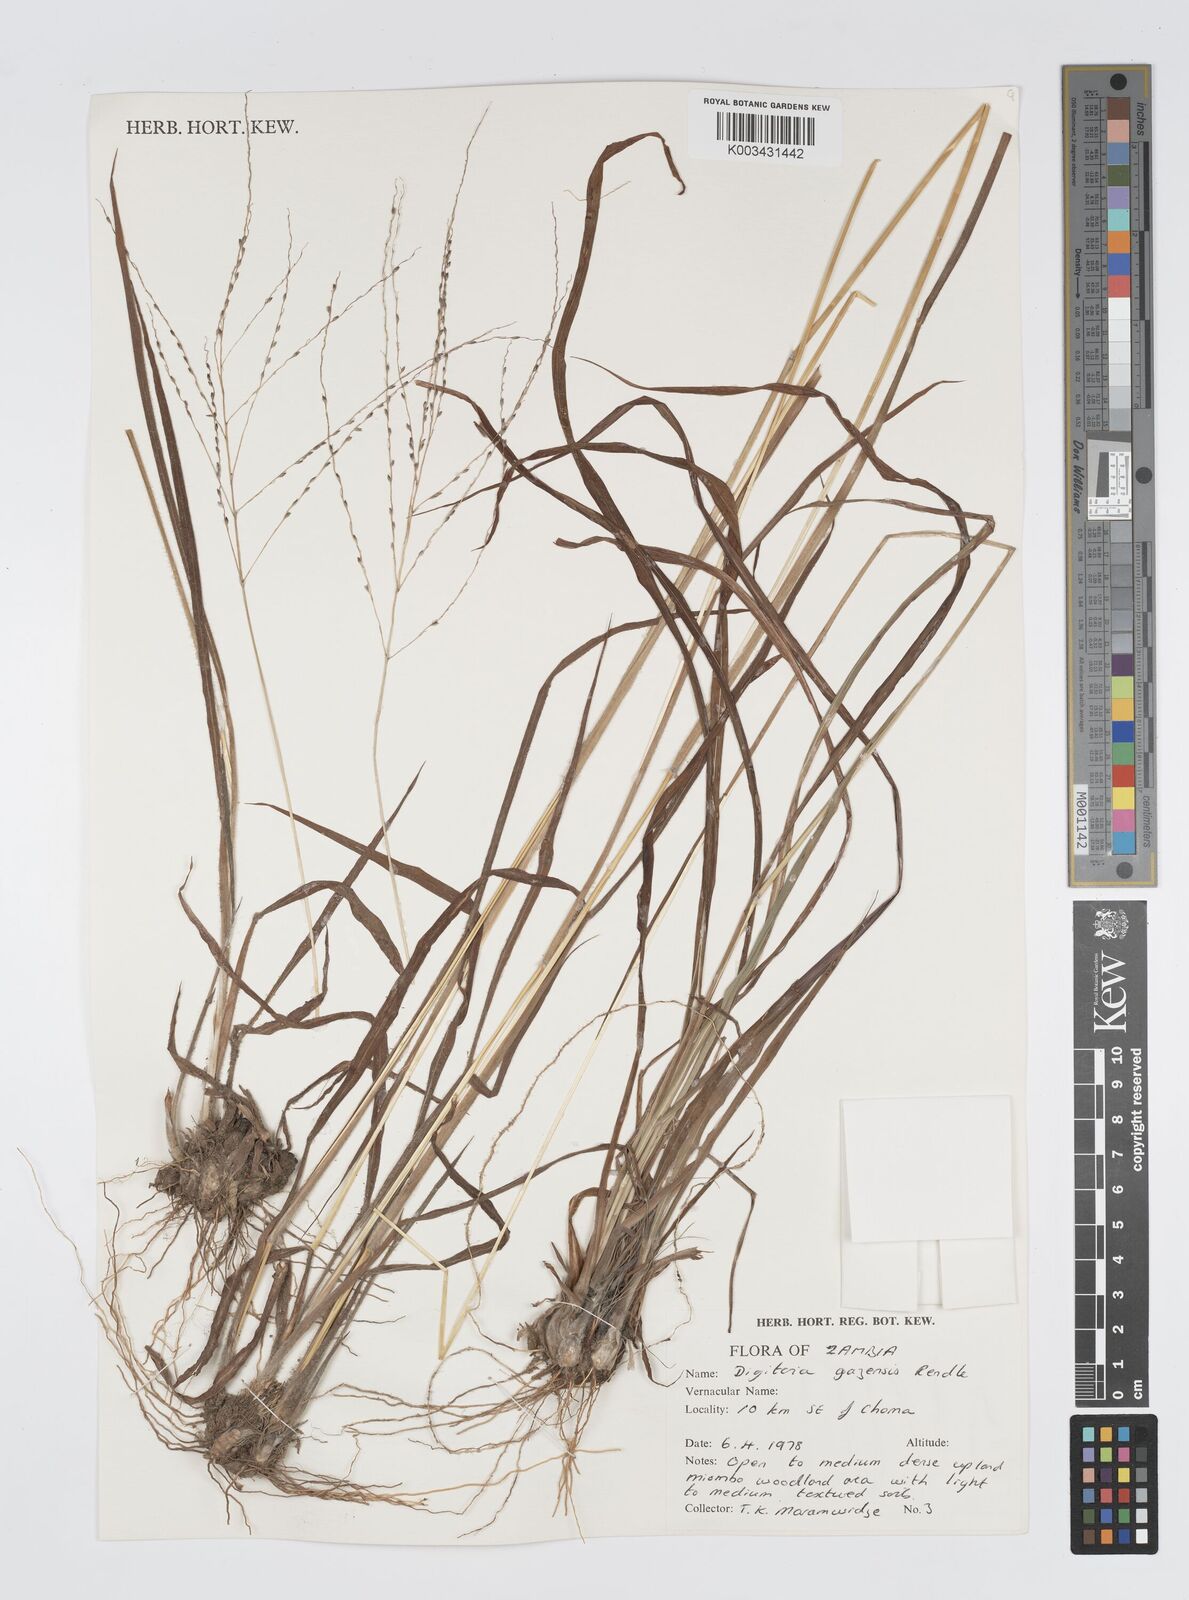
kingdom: Plantae
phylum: Tracheophyta
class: Liliopsida
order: Poales
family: Poaceae
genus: Digitaria
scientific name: Digitaria gazensis
